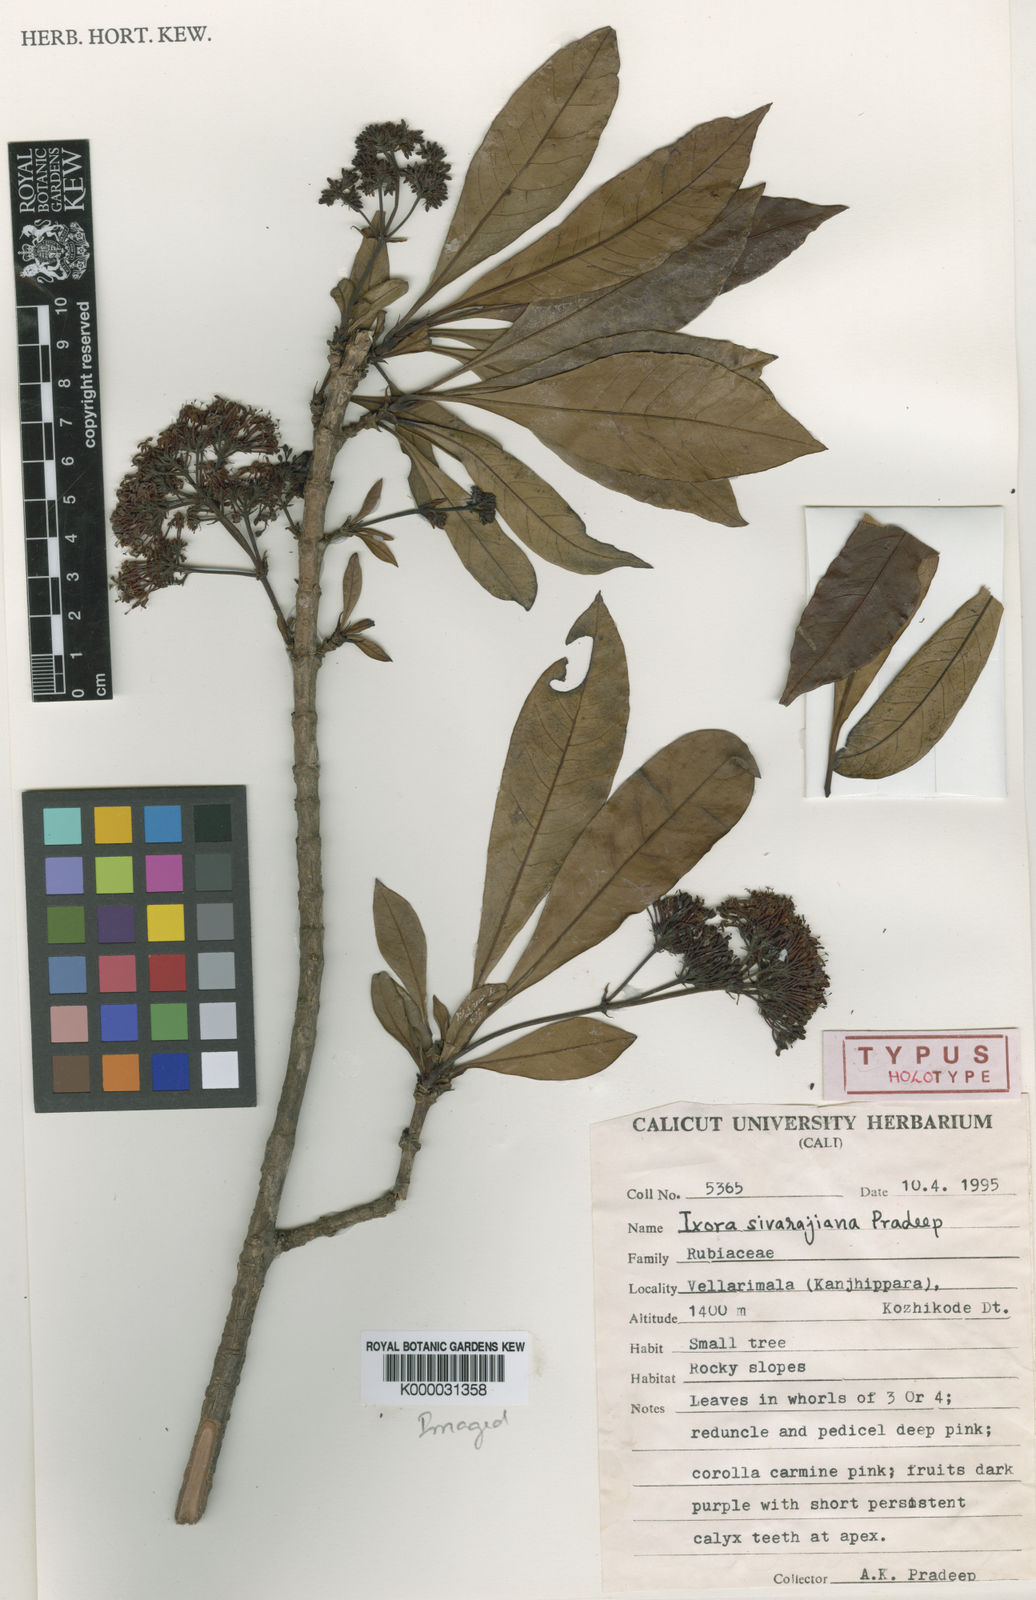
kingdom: Plantae
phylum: Tracheophyta
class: Magnoliopsida
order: Gentianales
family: Rubiaceae
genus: Ixora
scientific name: Ixora notoniana
